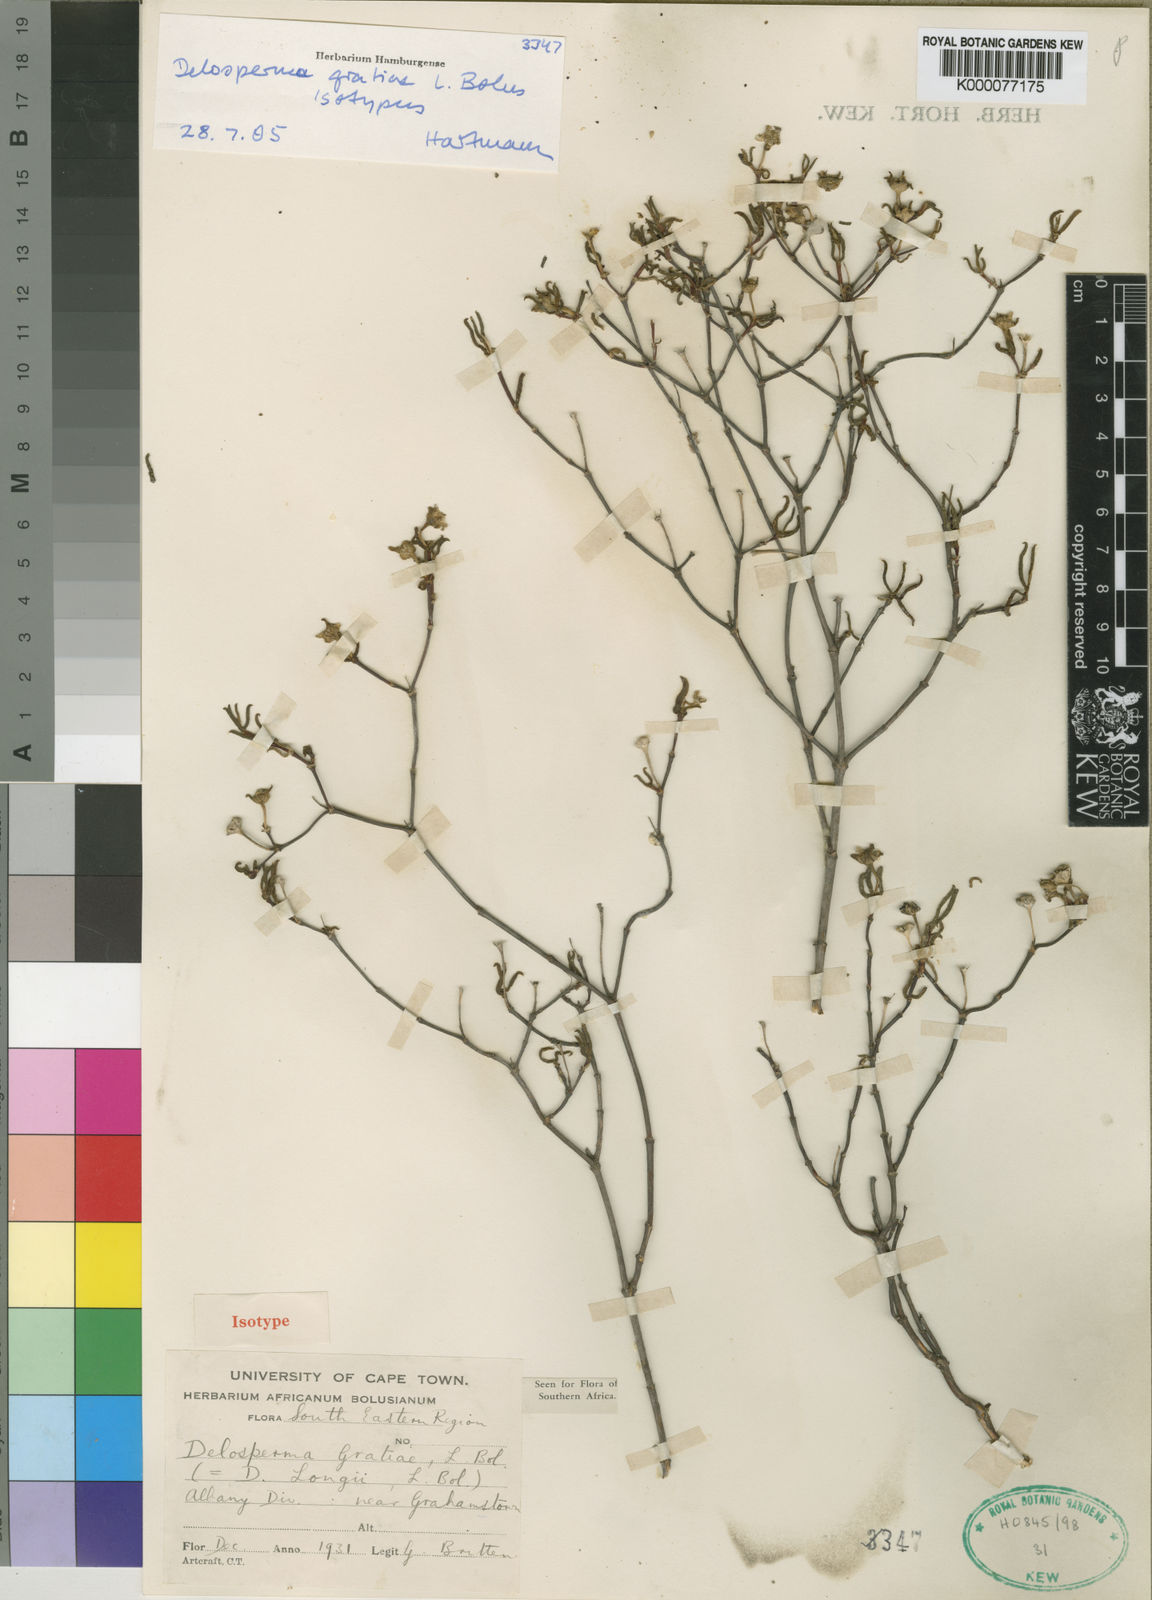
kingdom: Plantae
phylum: Tracheophyta
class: Magnoliopsida
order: Caryophyllales
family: Aizoaceae
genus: Delosperma
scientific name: Delosperma gratiae
